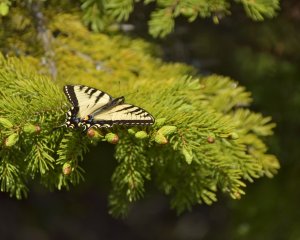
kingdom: Animalia
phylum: Arthropoda
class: Insecta
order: Lepidoptera
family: Papilionidae
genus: Pterourus
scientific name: Pterourus canadensis
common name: Canadian Tiger Swallowtail
